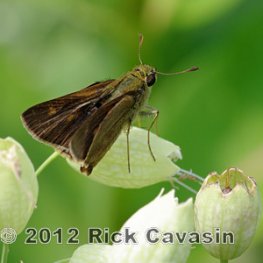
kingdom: Animalia
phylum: Arthropoda
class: Insecta
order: Lepidoptera
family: Hesperiidae
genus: Polites
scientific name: Polites egeremet
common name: Northern Broken-Dash
